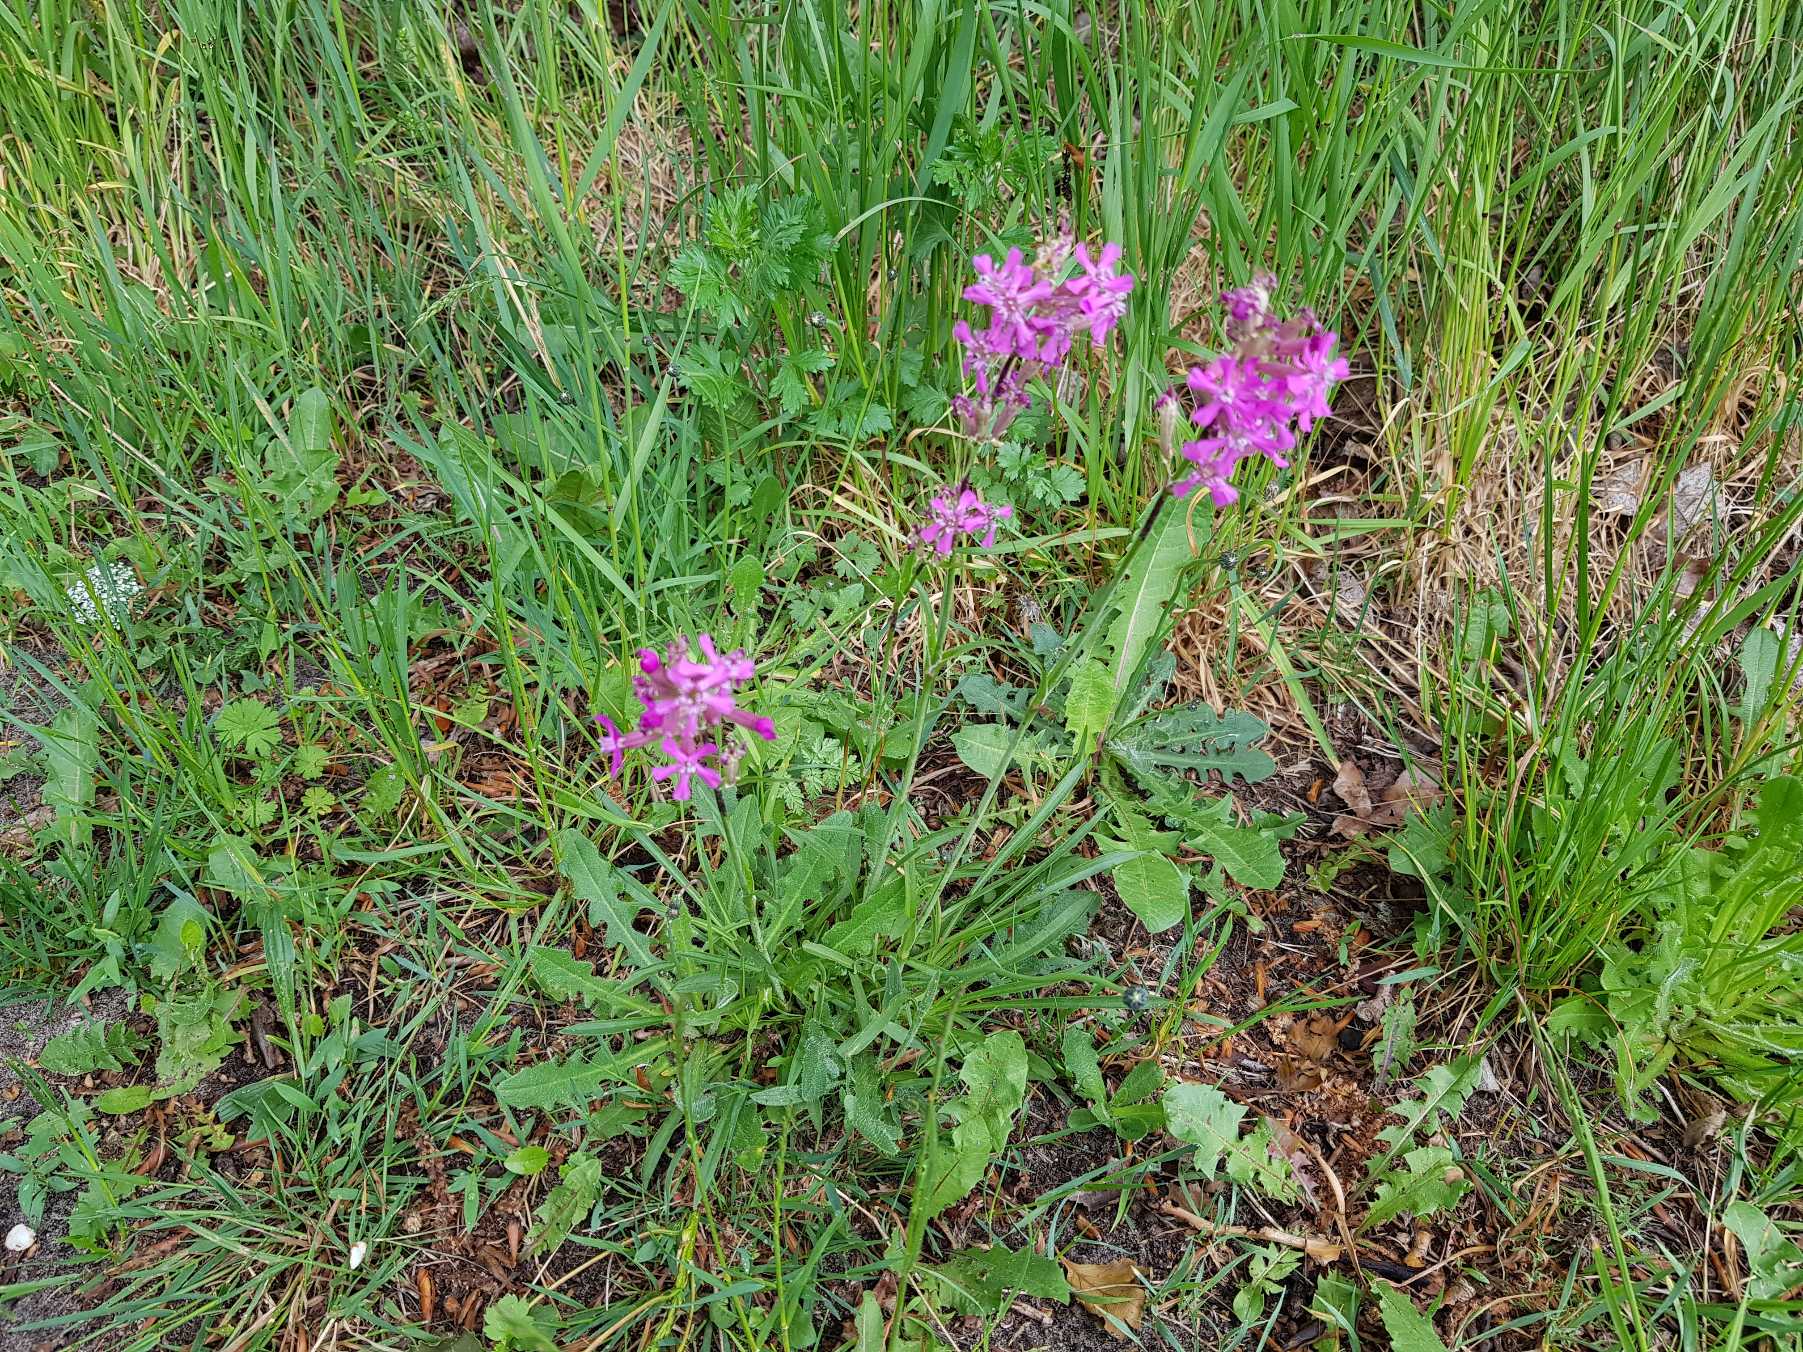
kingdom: Plantae
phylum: Tracheophyta
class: Magnoliopsida
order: Caryophyllales
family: Caryophyllaceae
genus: Viscaria
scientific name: Viscaria vulgaris
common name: Tjærenellike
